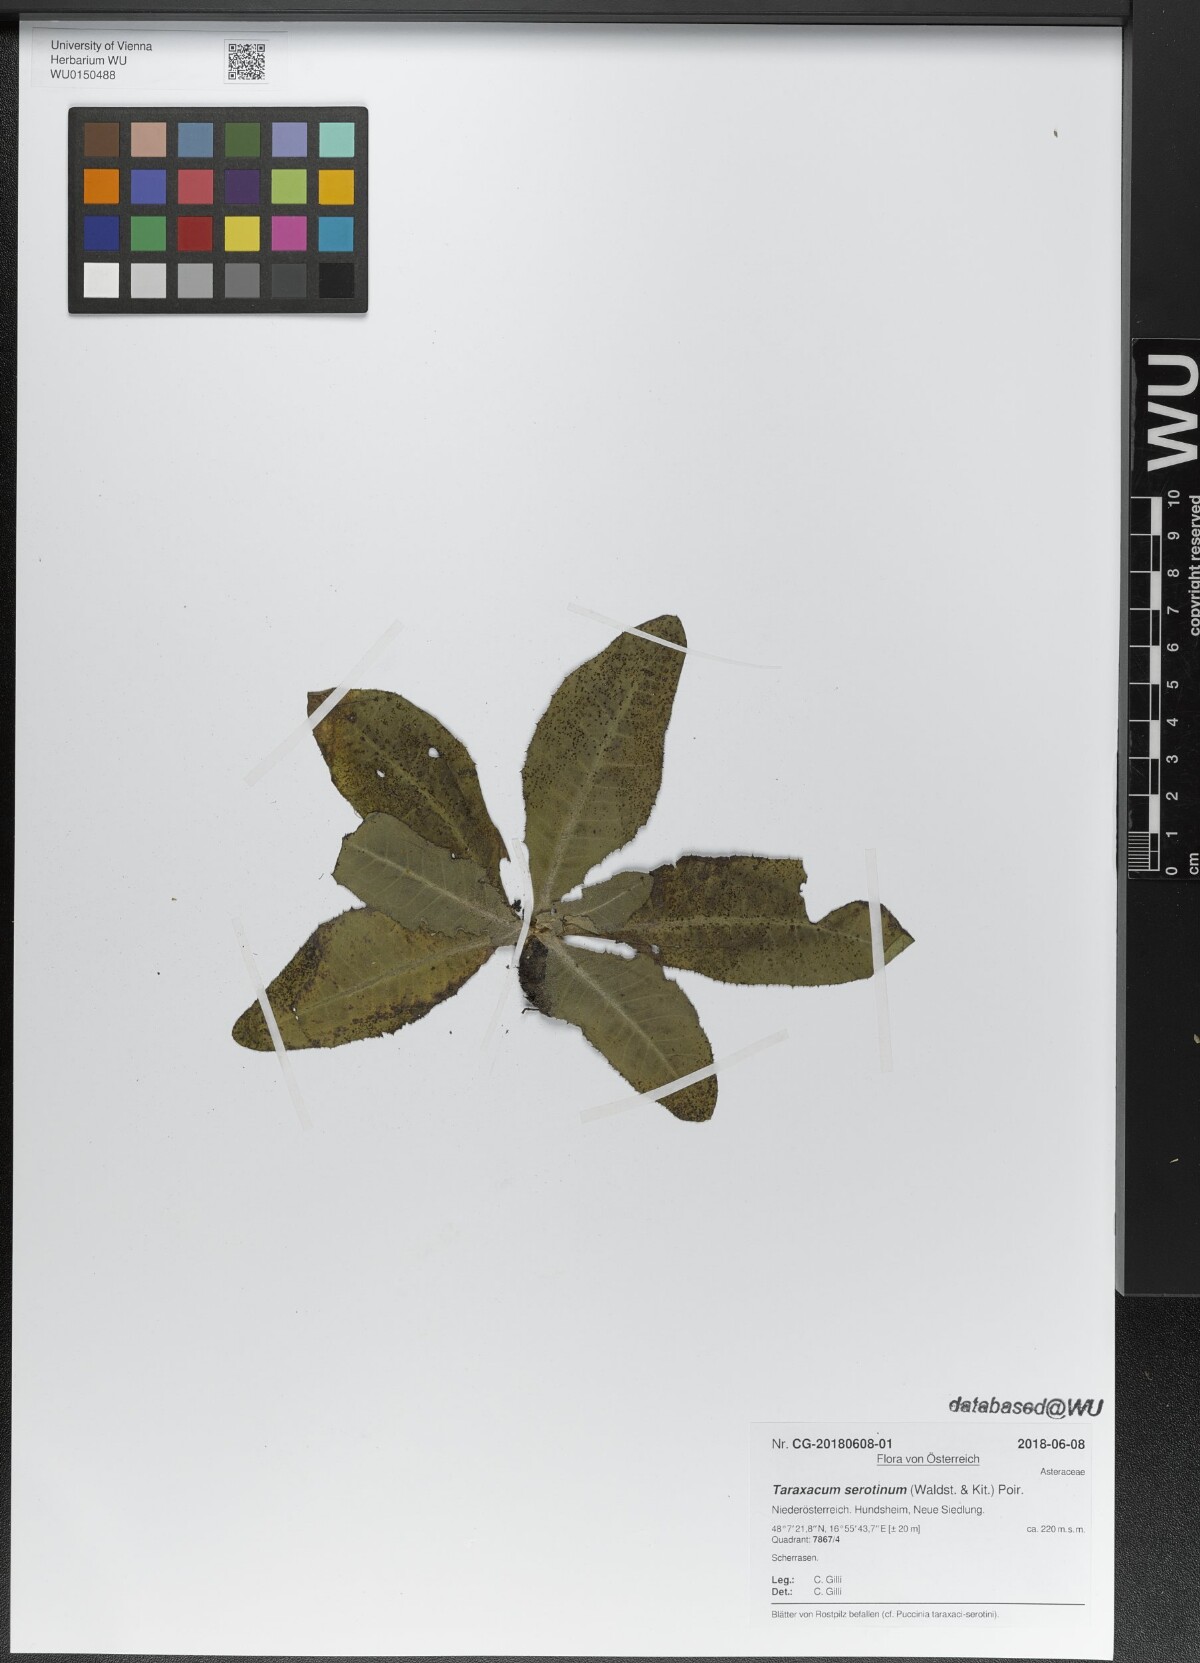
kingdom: Plantae
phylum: Tracheophyta
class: Magnoliopsida
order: Asterales
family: Asteraceae
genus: Taraxacum
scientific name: Taraxacum serotinum
